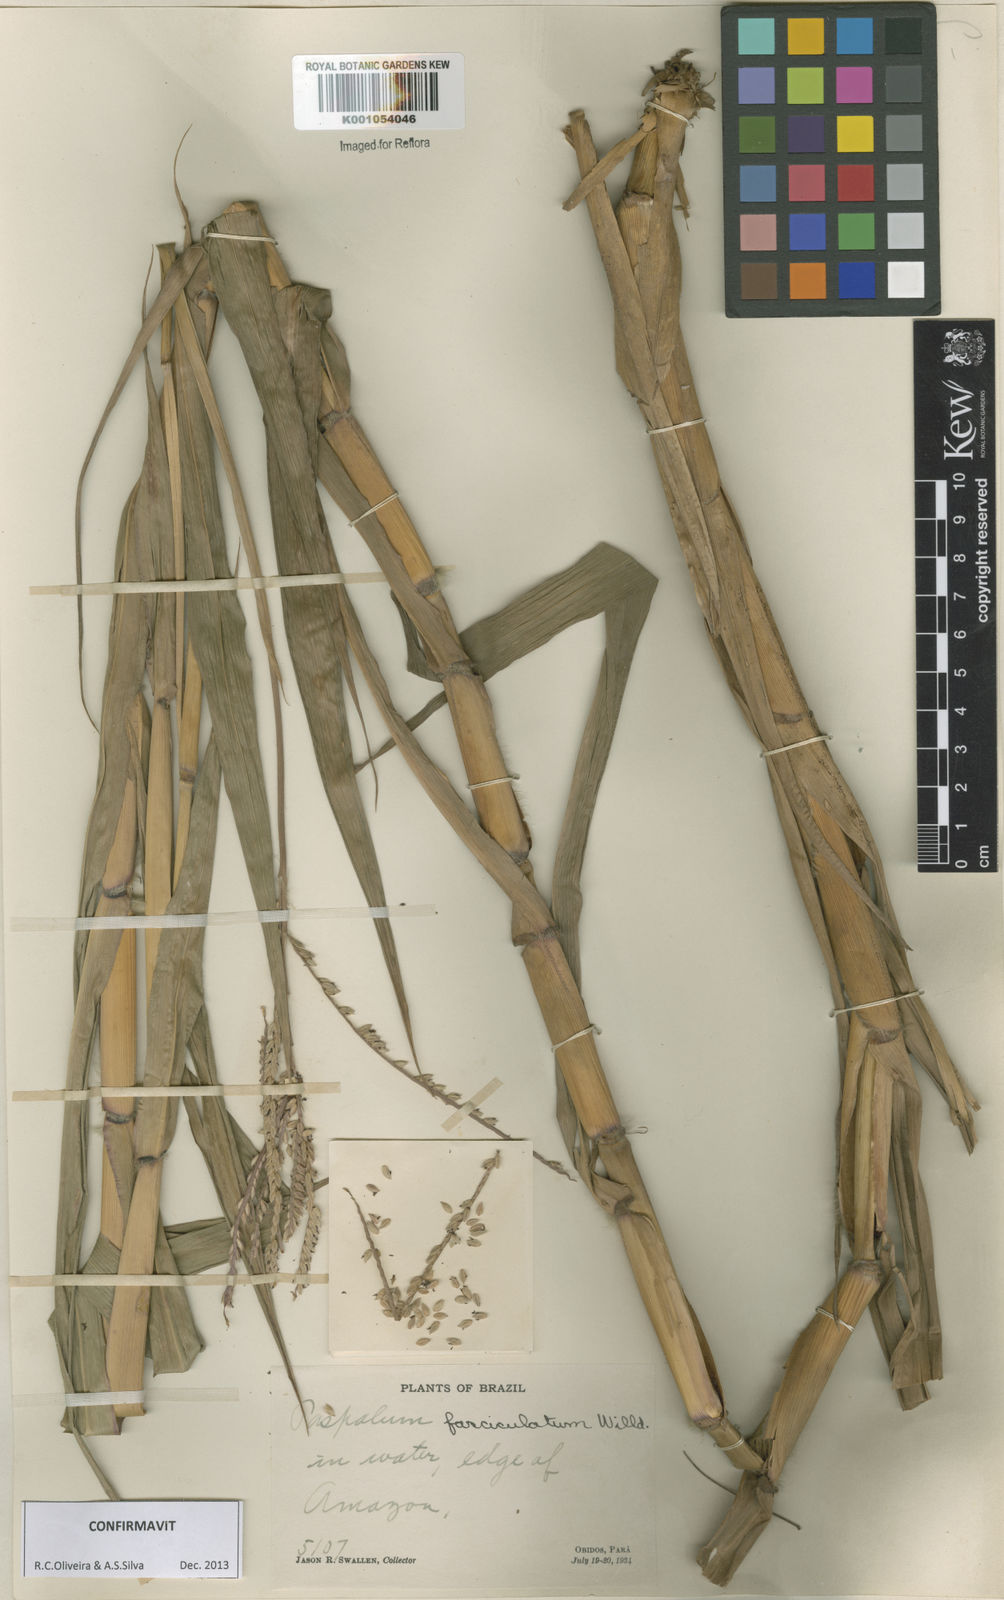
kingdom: Plantae
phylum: Tracheophyta
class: Liliopsida
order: Poales
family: Poaceae
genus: Paspalum
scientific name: Paspalum
